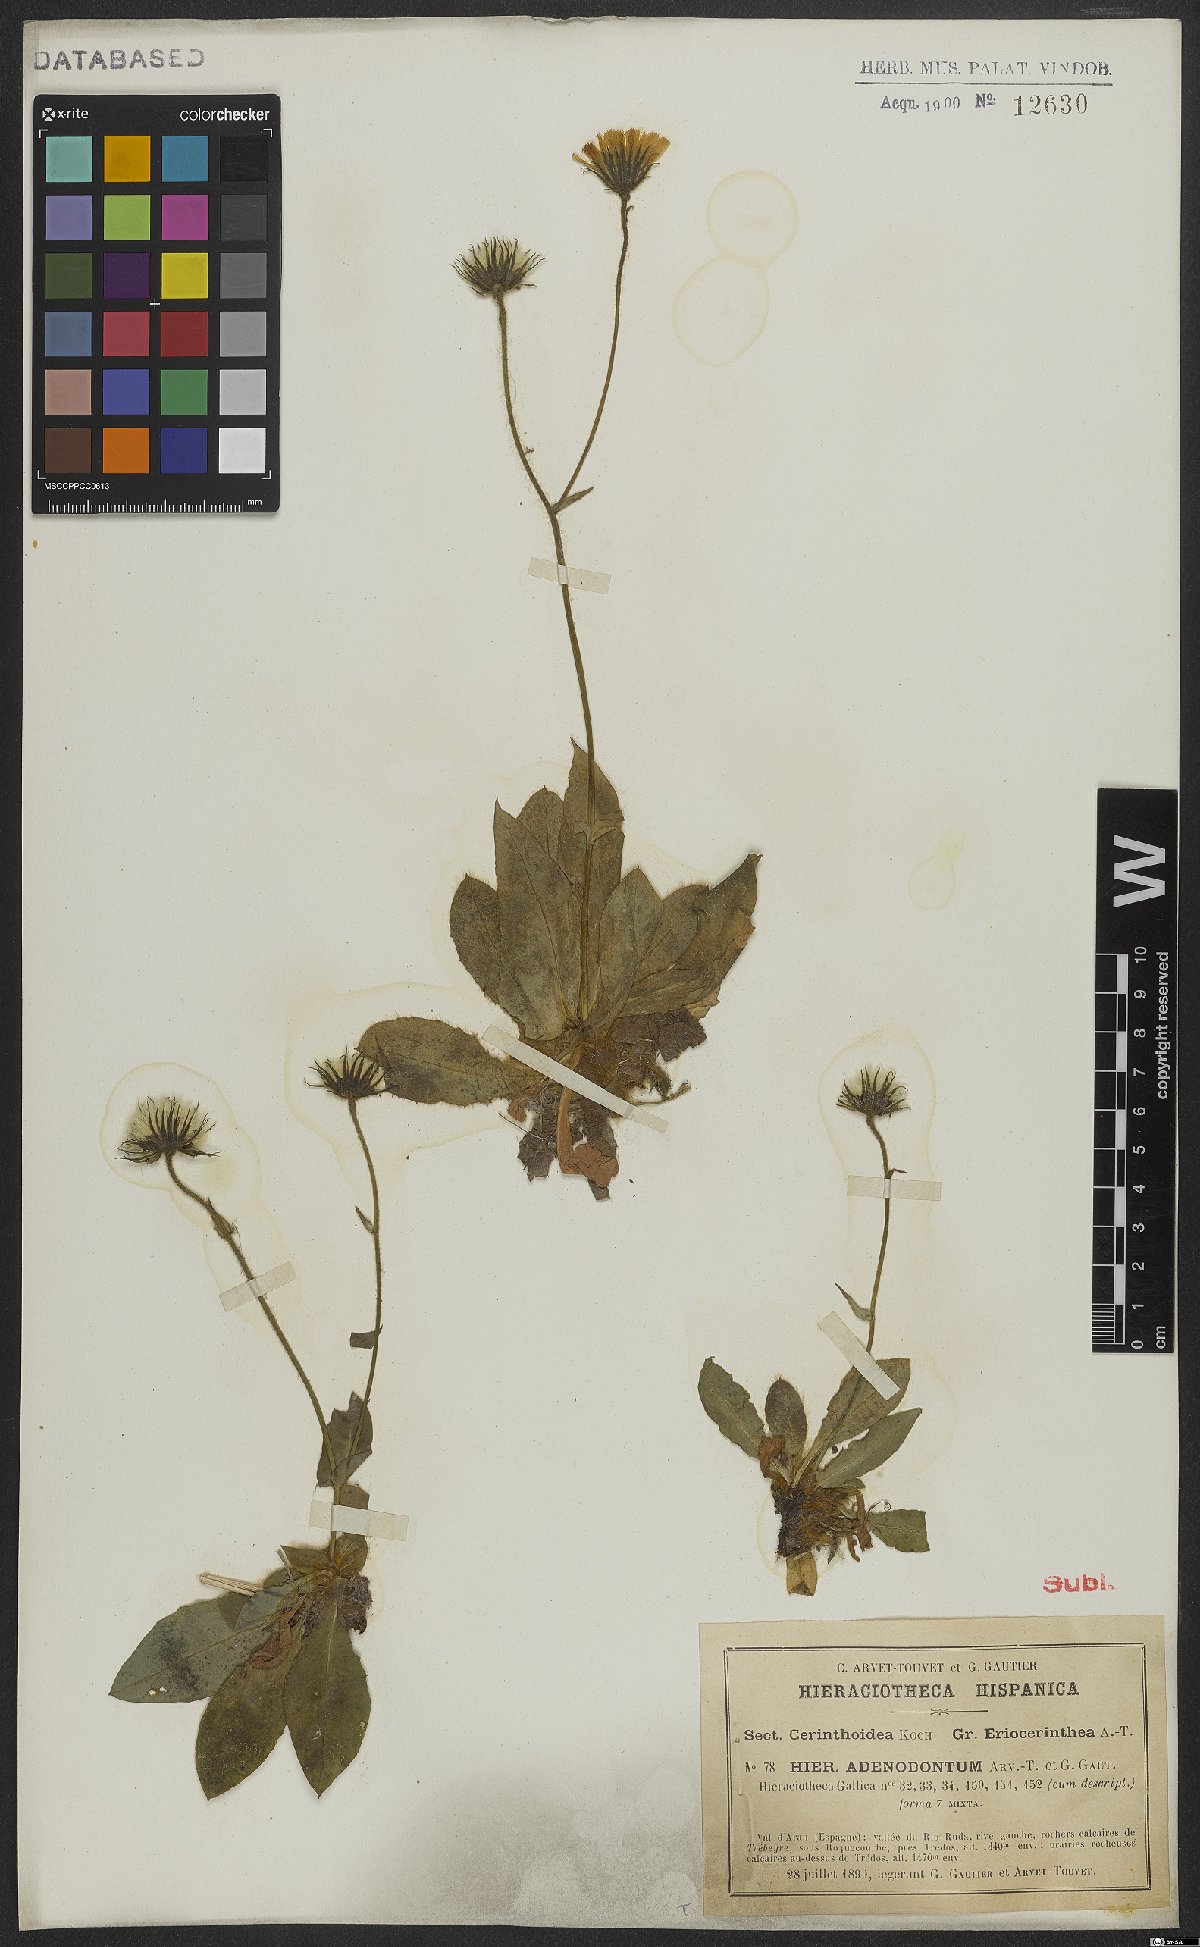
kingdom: Plantae
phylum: Tracheophyta
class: Magnoliopsida
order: Asterales
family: Asteraceae
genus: Hieracium
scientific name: Hieracium adenodontum
